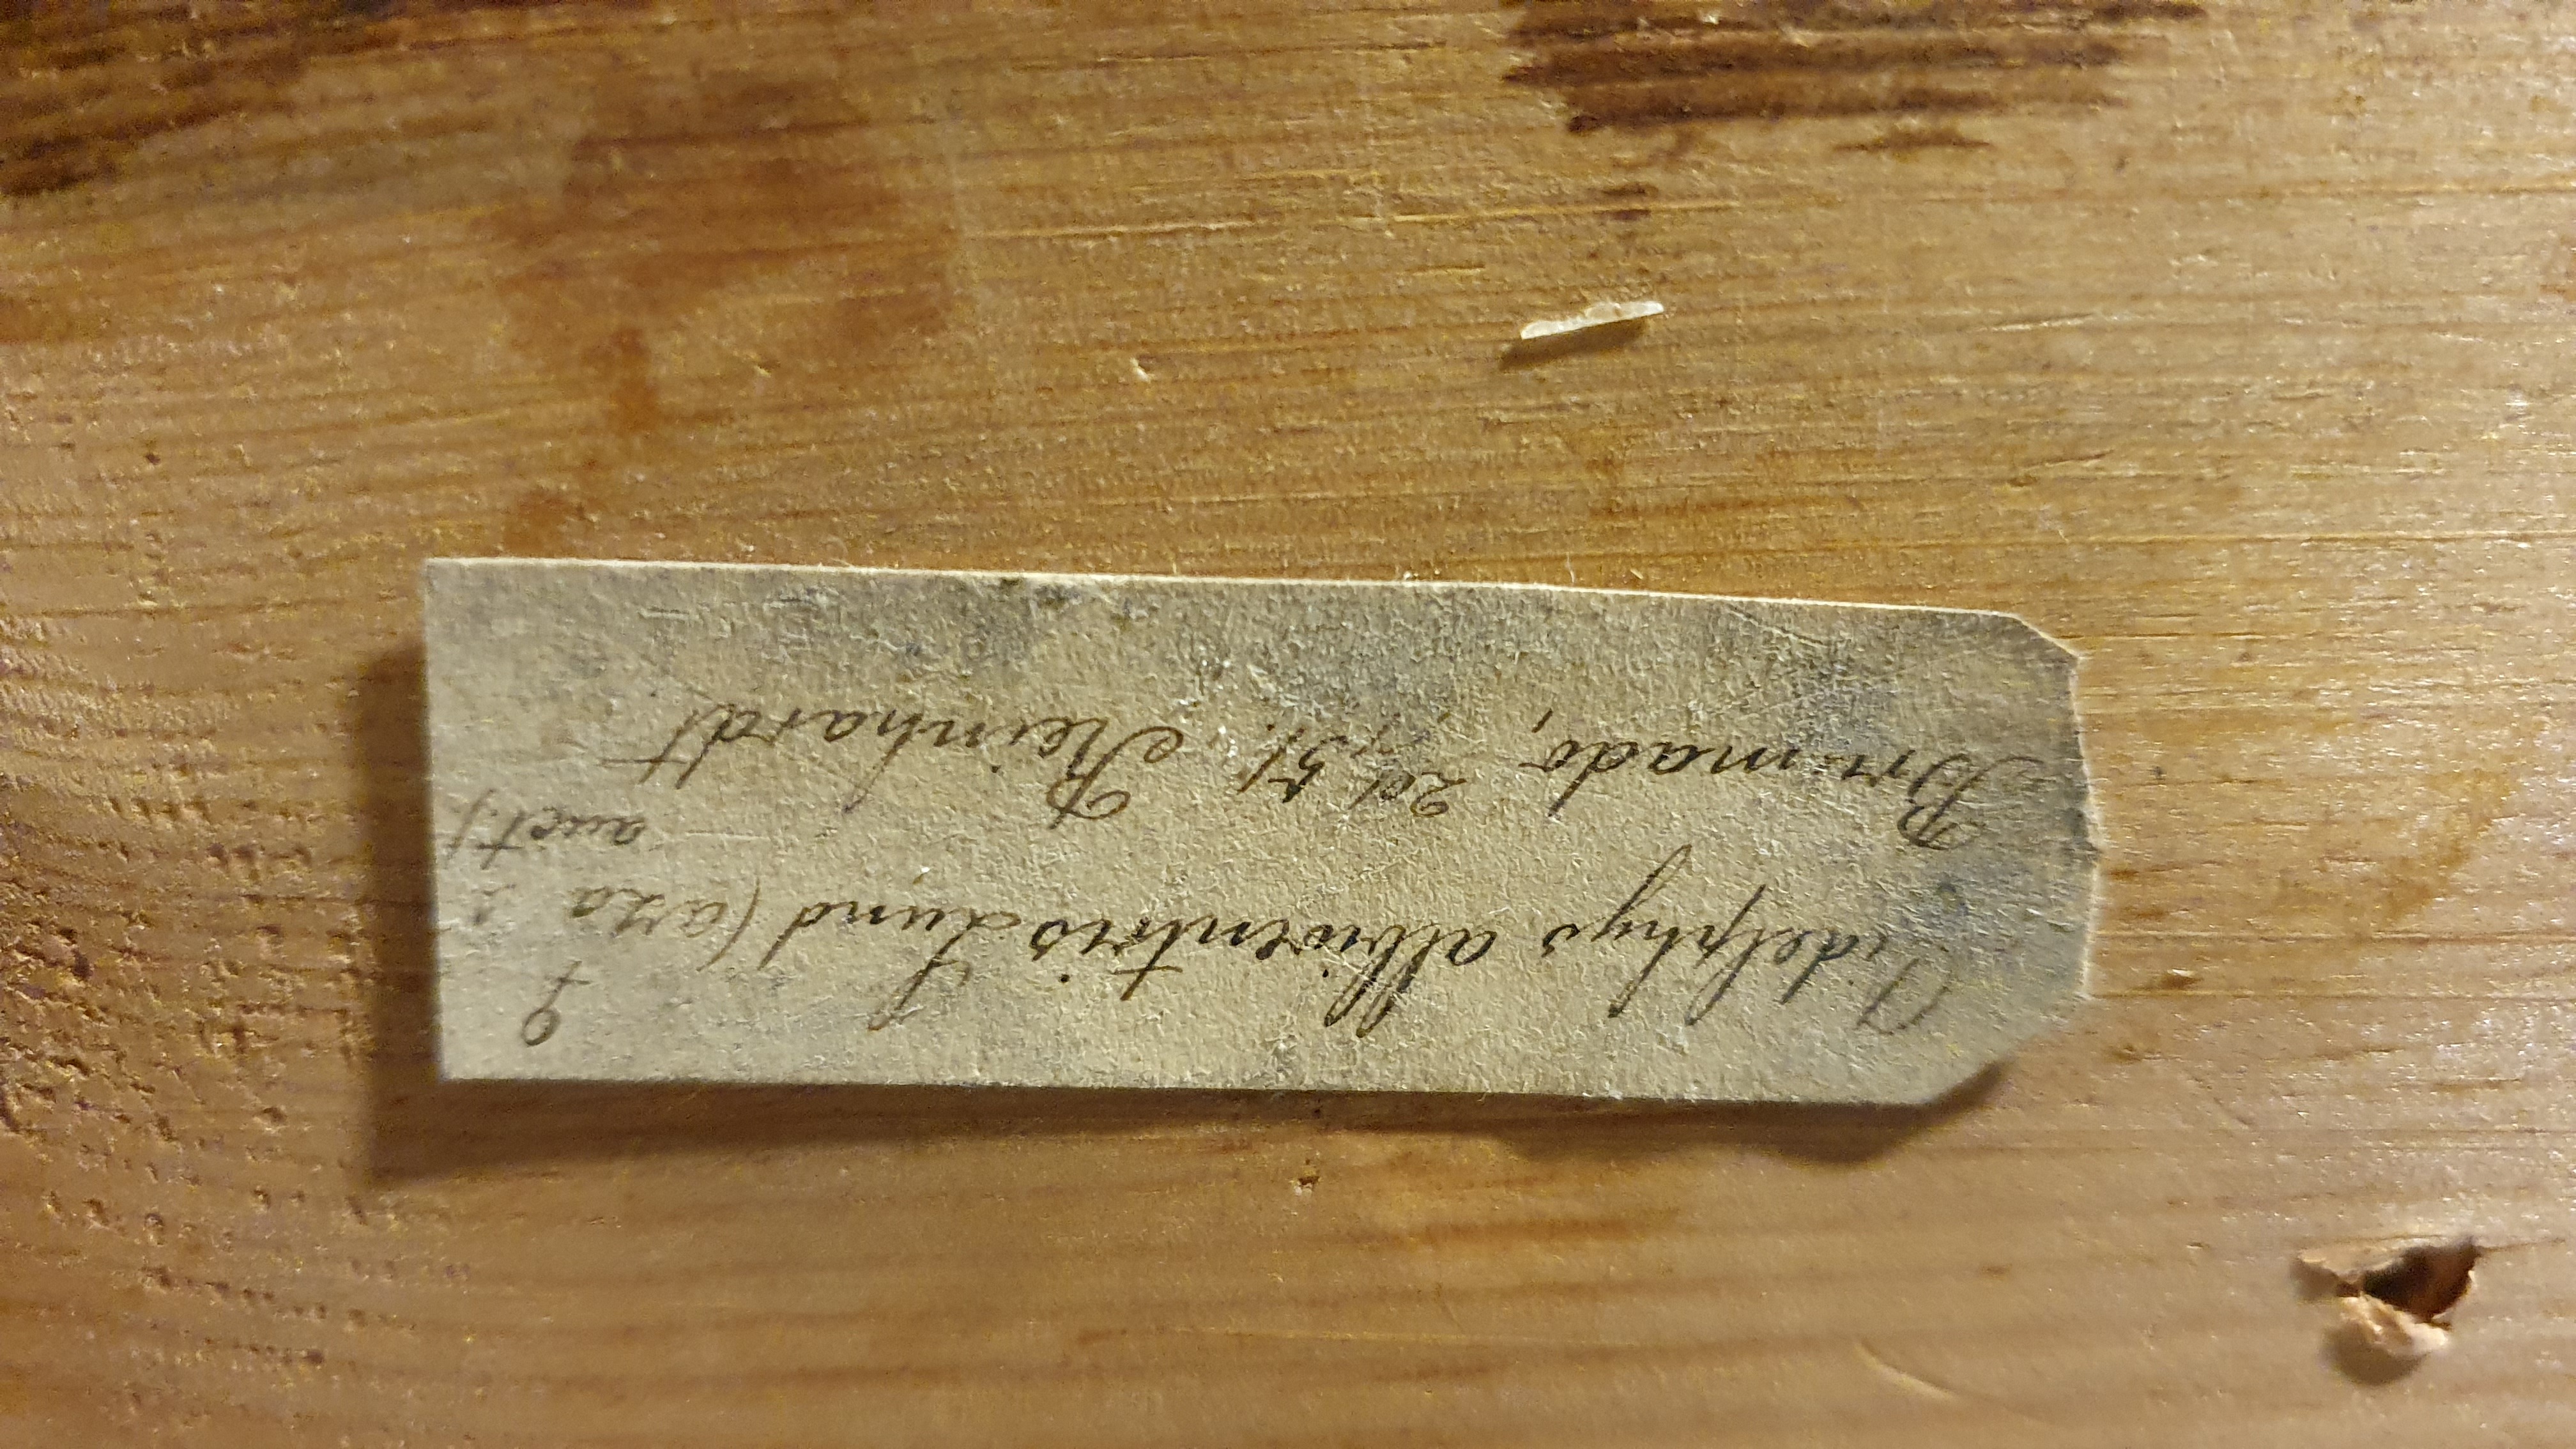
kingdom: Animalia
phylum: Chordata
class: Mammalia
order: Didelphimorphia
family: Didelphidae
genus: Didelphis
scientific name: Didelphis marsupialis
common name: Common opossum
